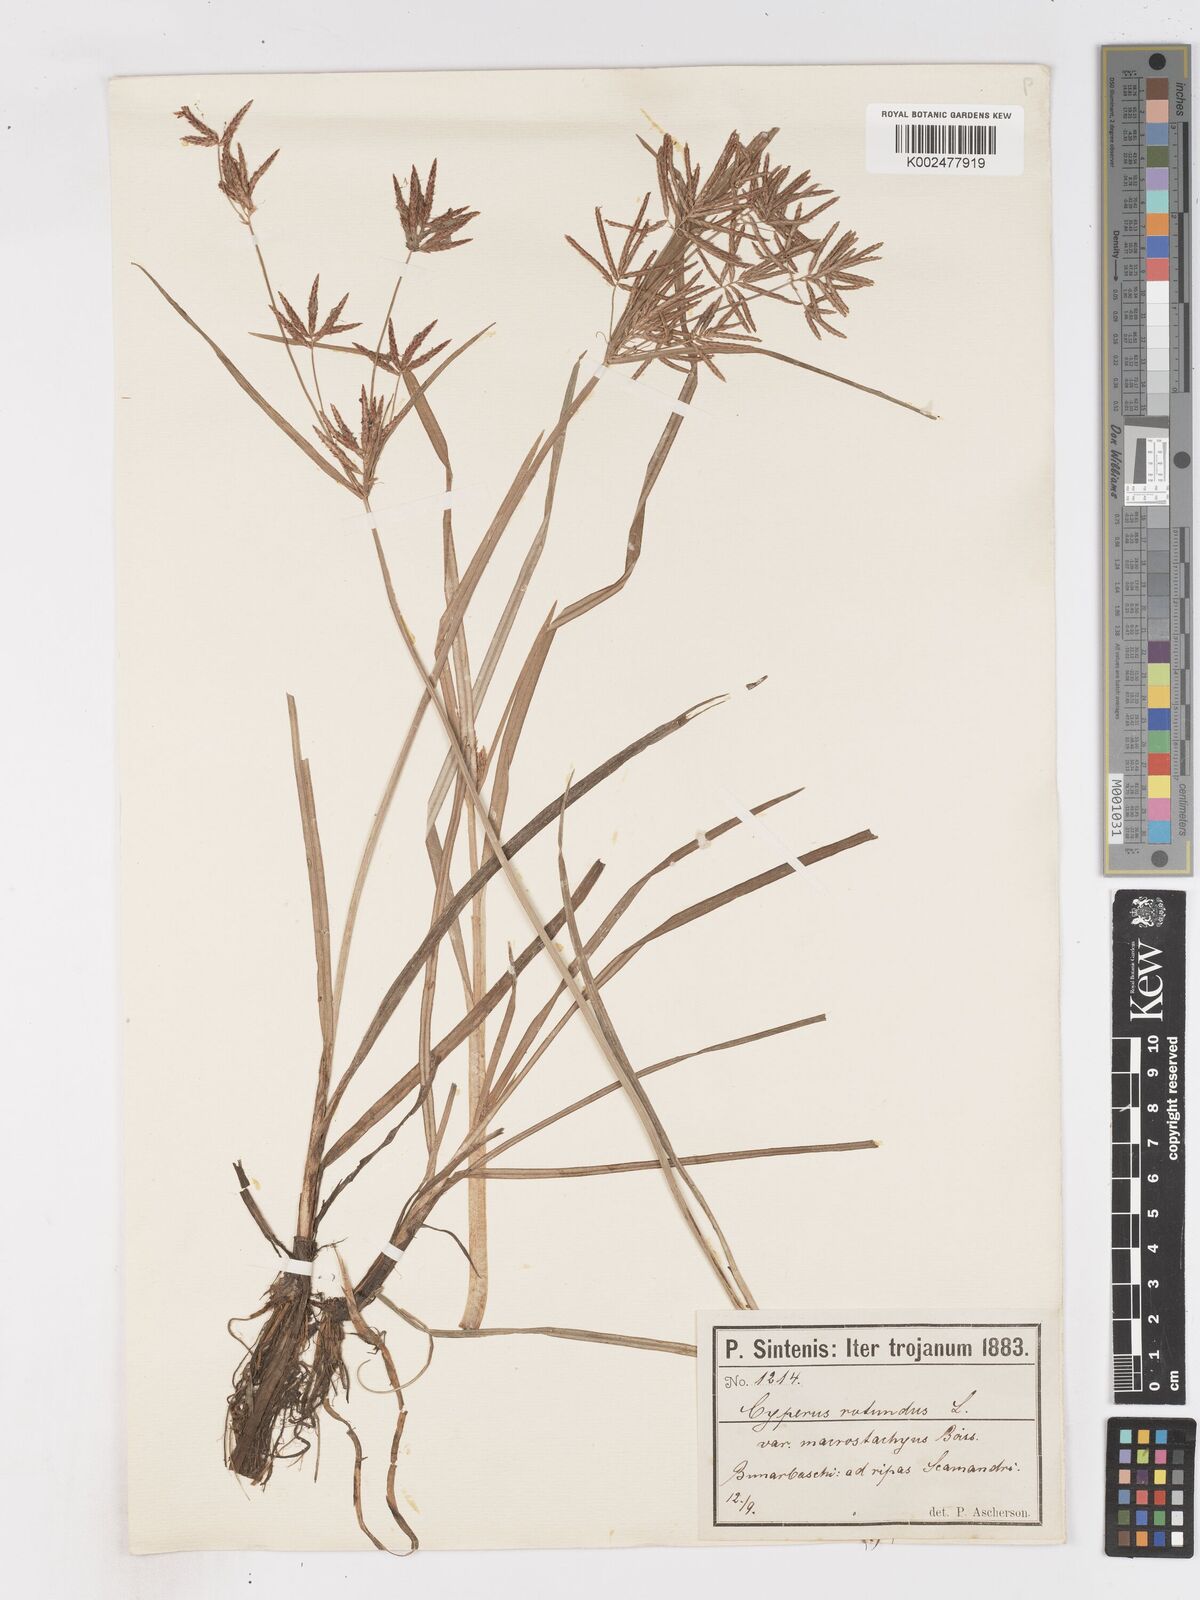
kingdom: Plantae
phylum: Tracheophyta
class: Liliopsida
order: Poales
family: Cyperaceae
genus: Cyperus
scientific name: Cyperus rotundus
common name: Nutgrass
